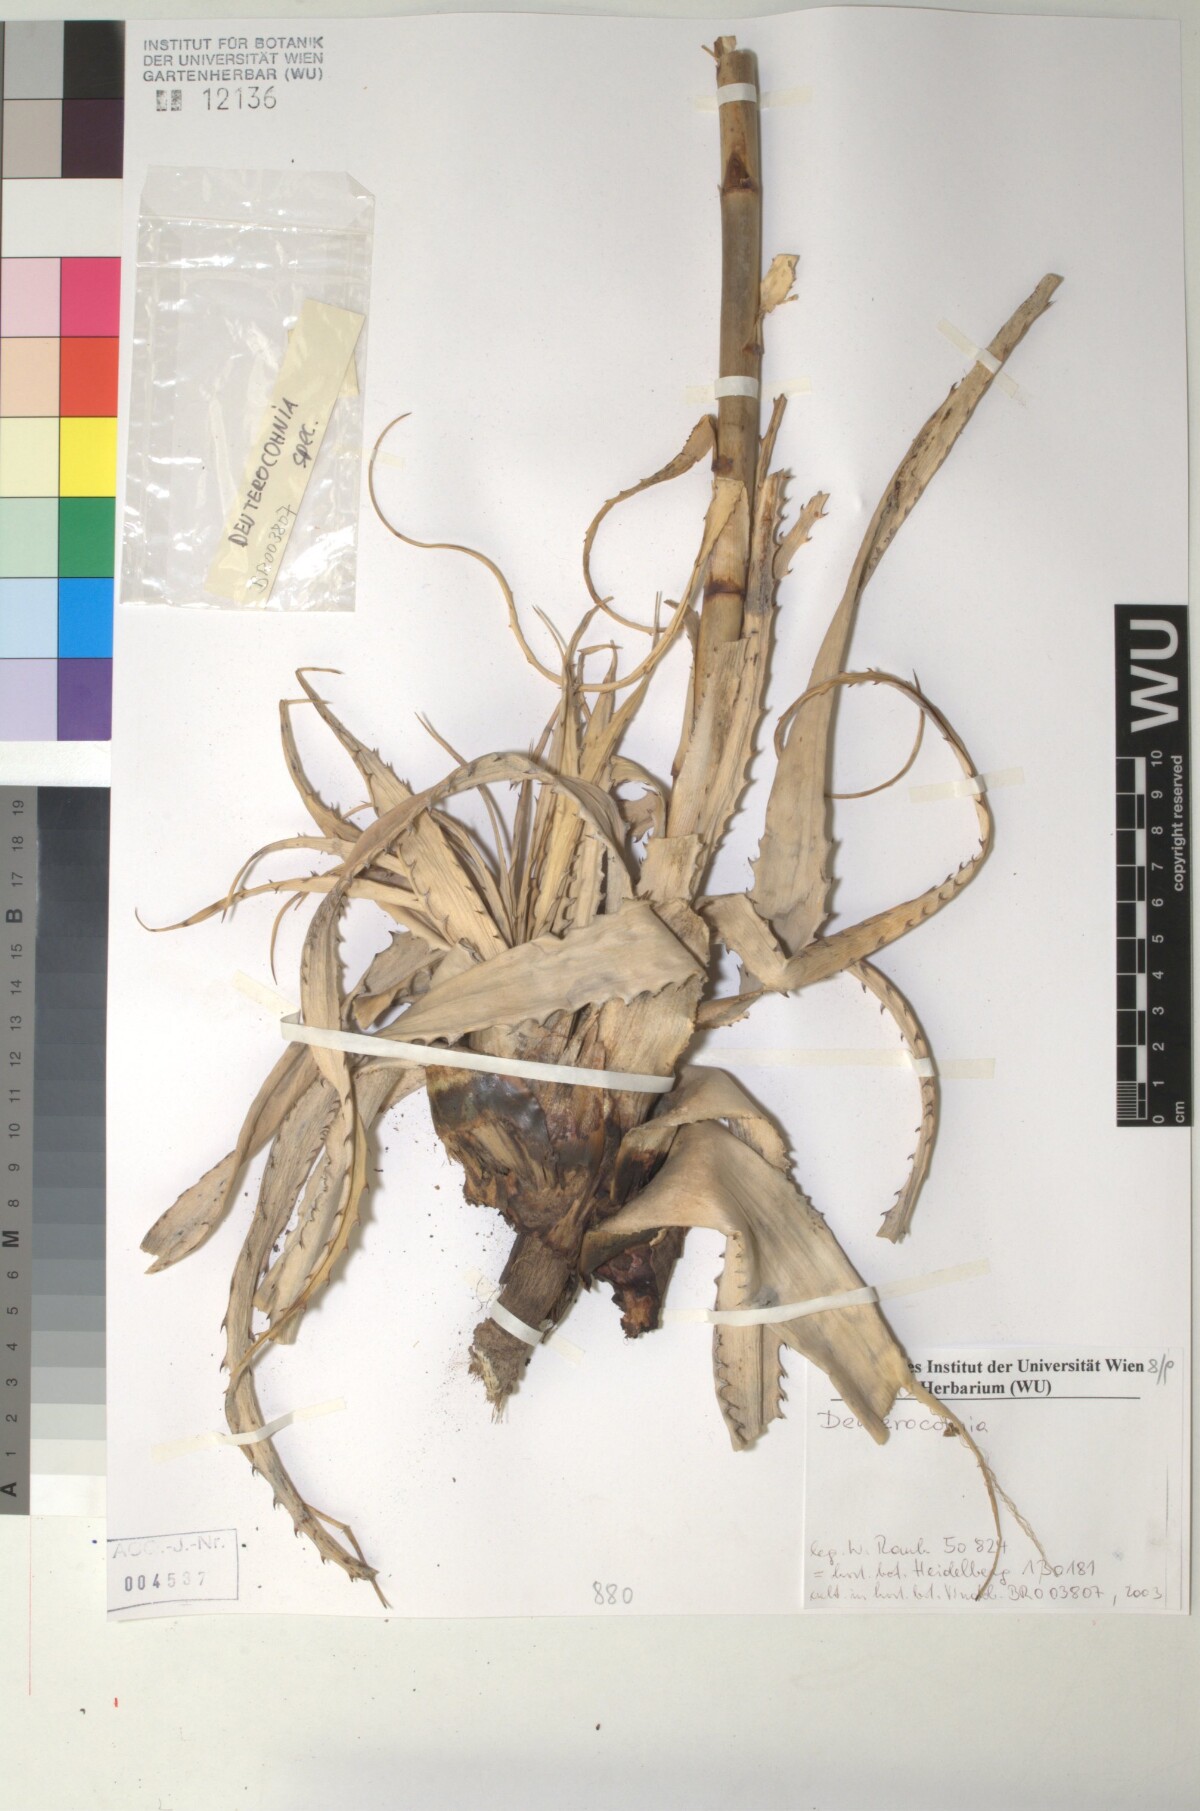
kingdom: Plantae
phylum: Tracheophyta
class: Liliopsida
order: Poales
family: Bromeliaceae
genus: Deuterocohnia
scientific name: Deuterocohnia
